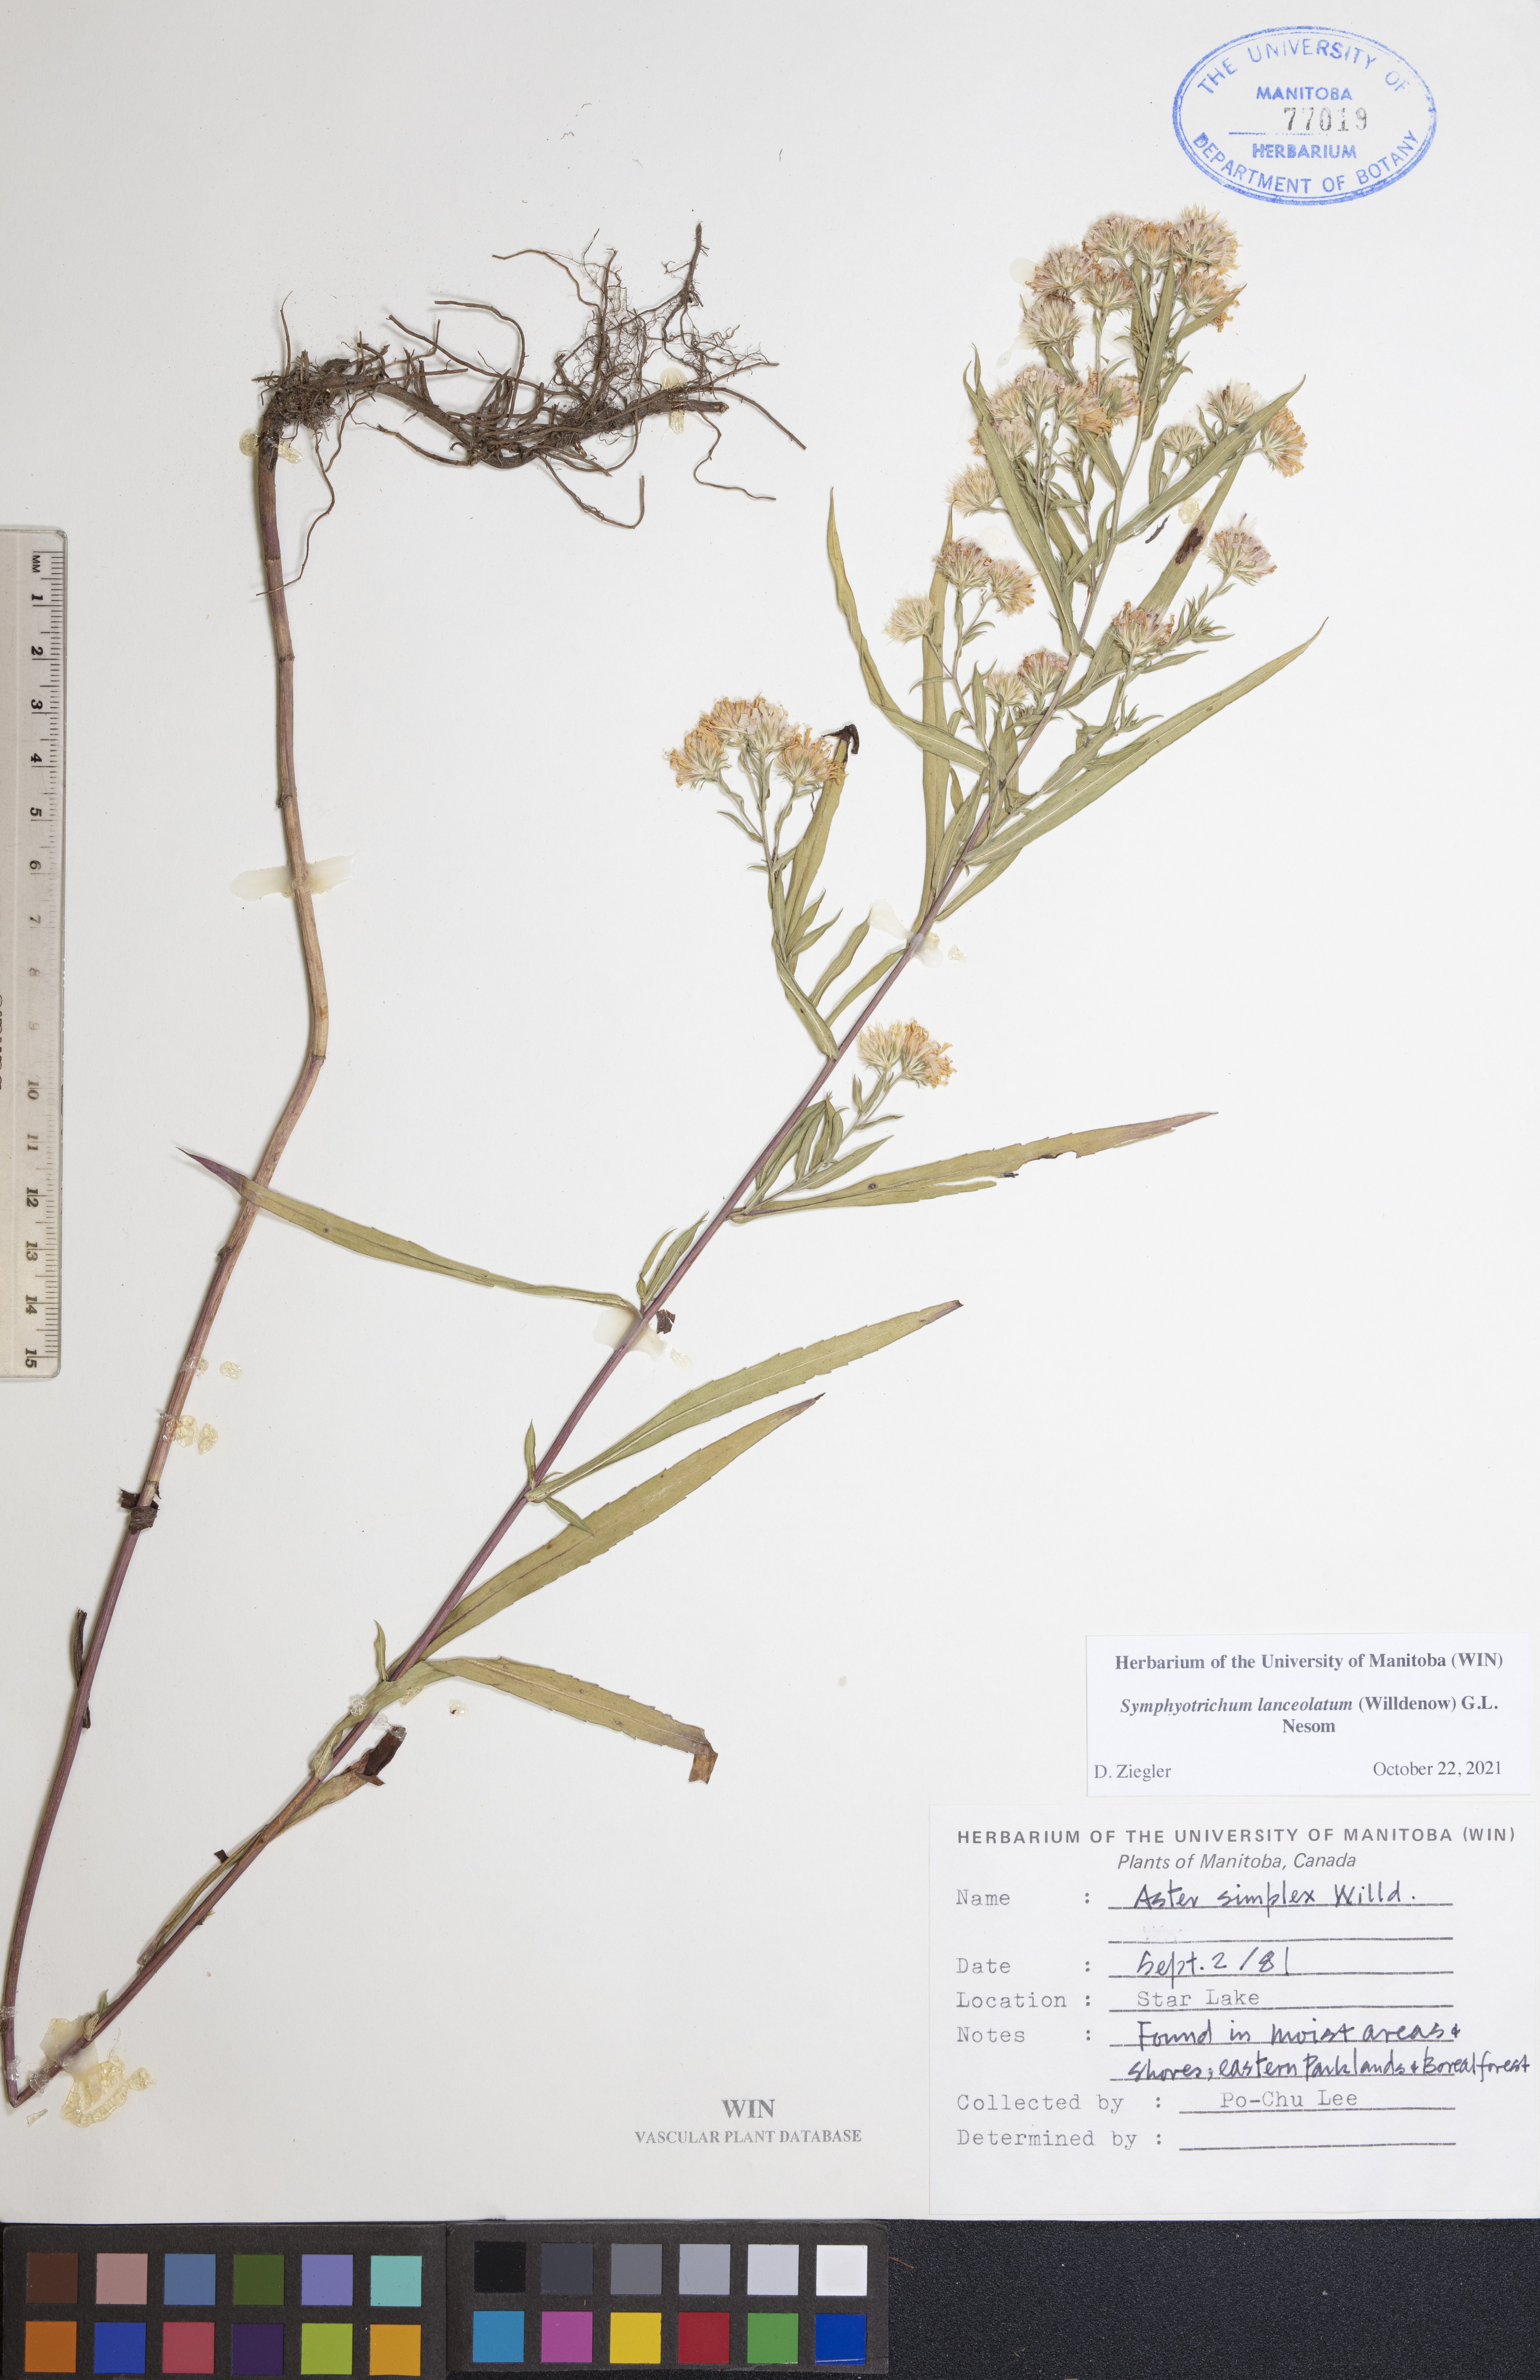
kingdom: Plantae
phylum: Tracheophyta
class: Magnoliopsida
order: Asterales
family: Asteraceae
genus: Miyamayomena
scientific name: Miyamayomena simplex
